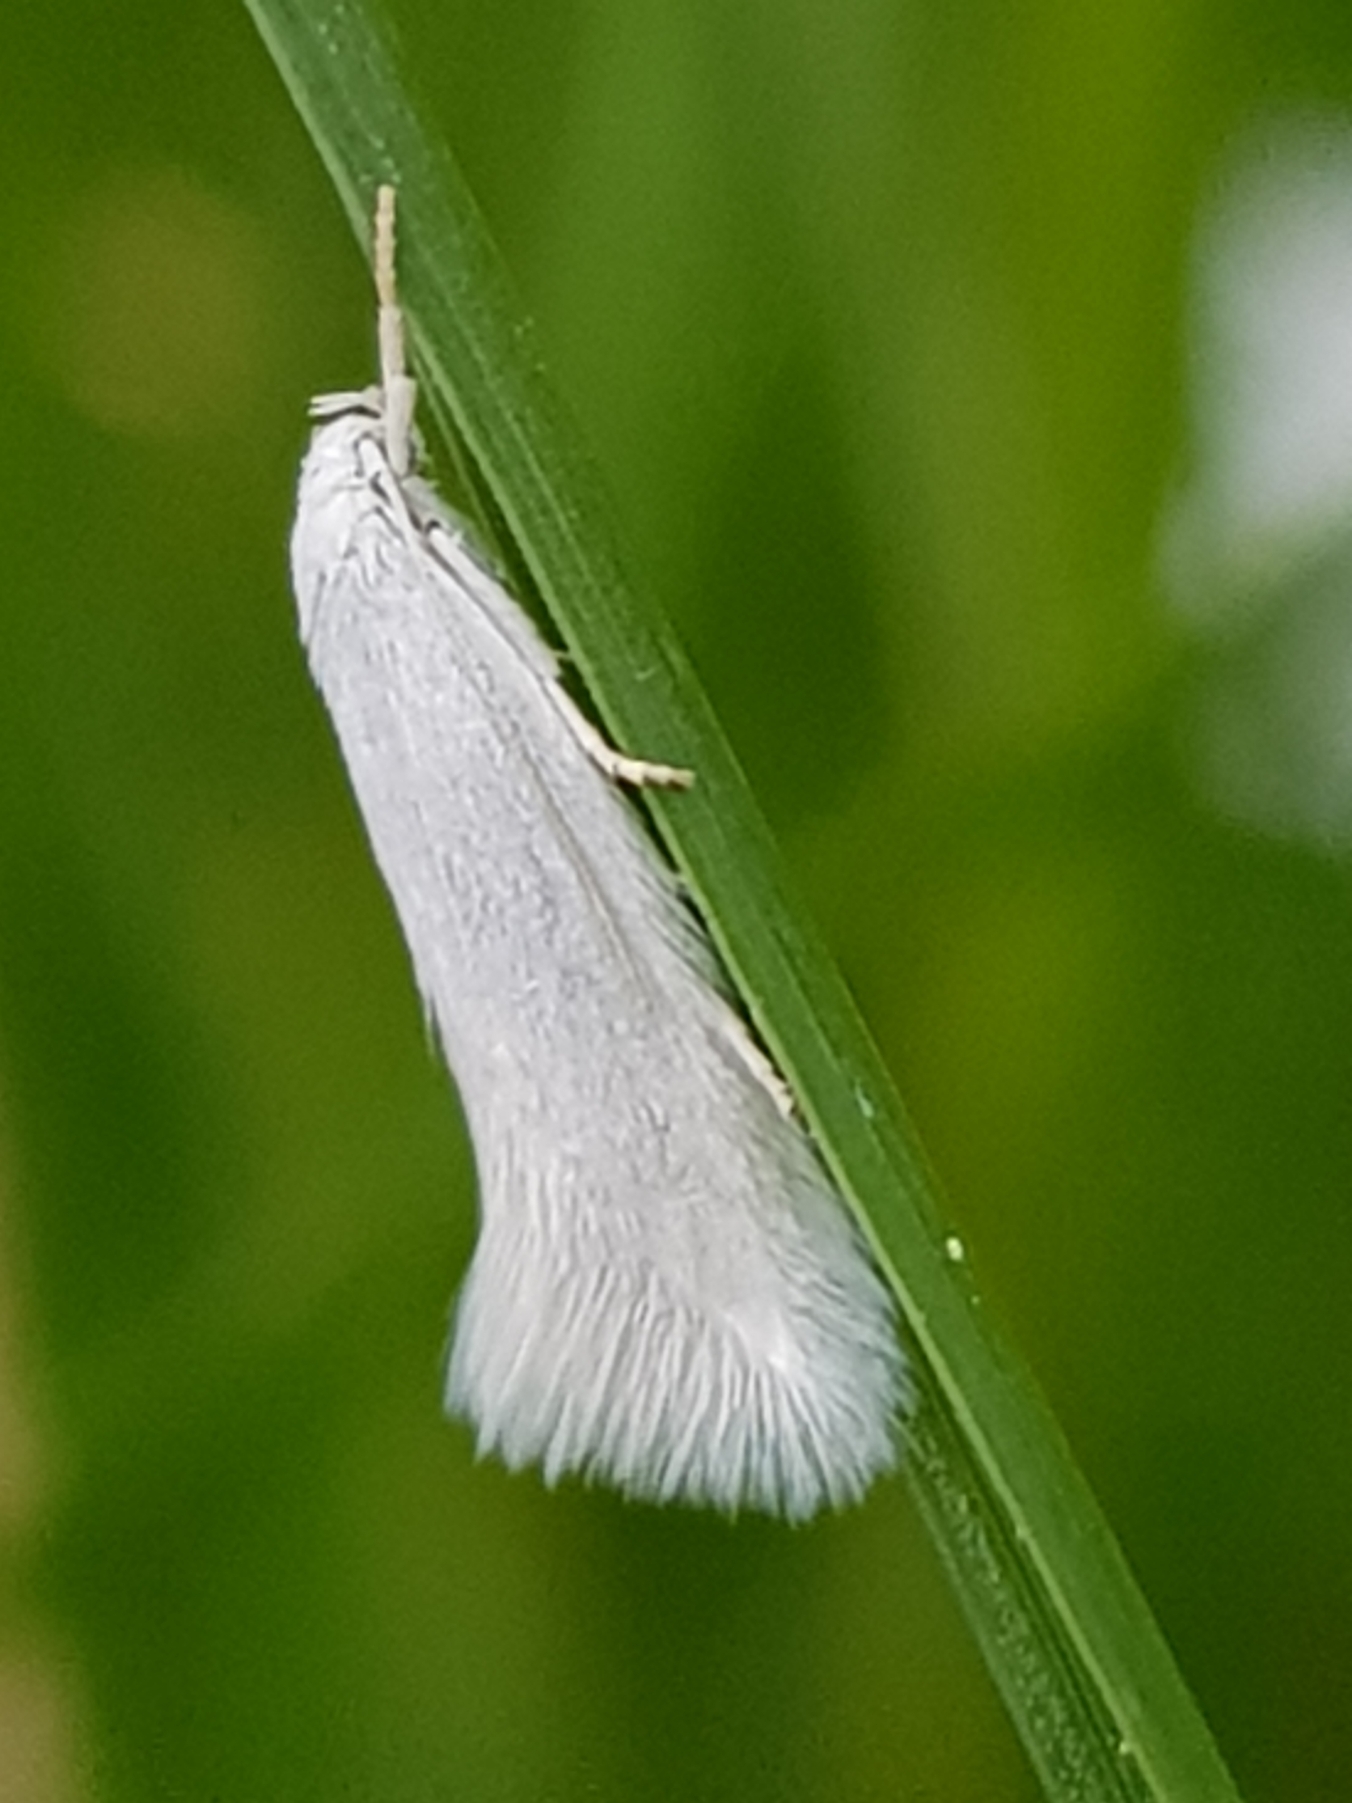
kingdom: Animalia
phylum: Arthropoda
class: Insecta
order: Lepidoptera
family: Elachistidae
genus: Elachista
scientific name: Elachista argentella
